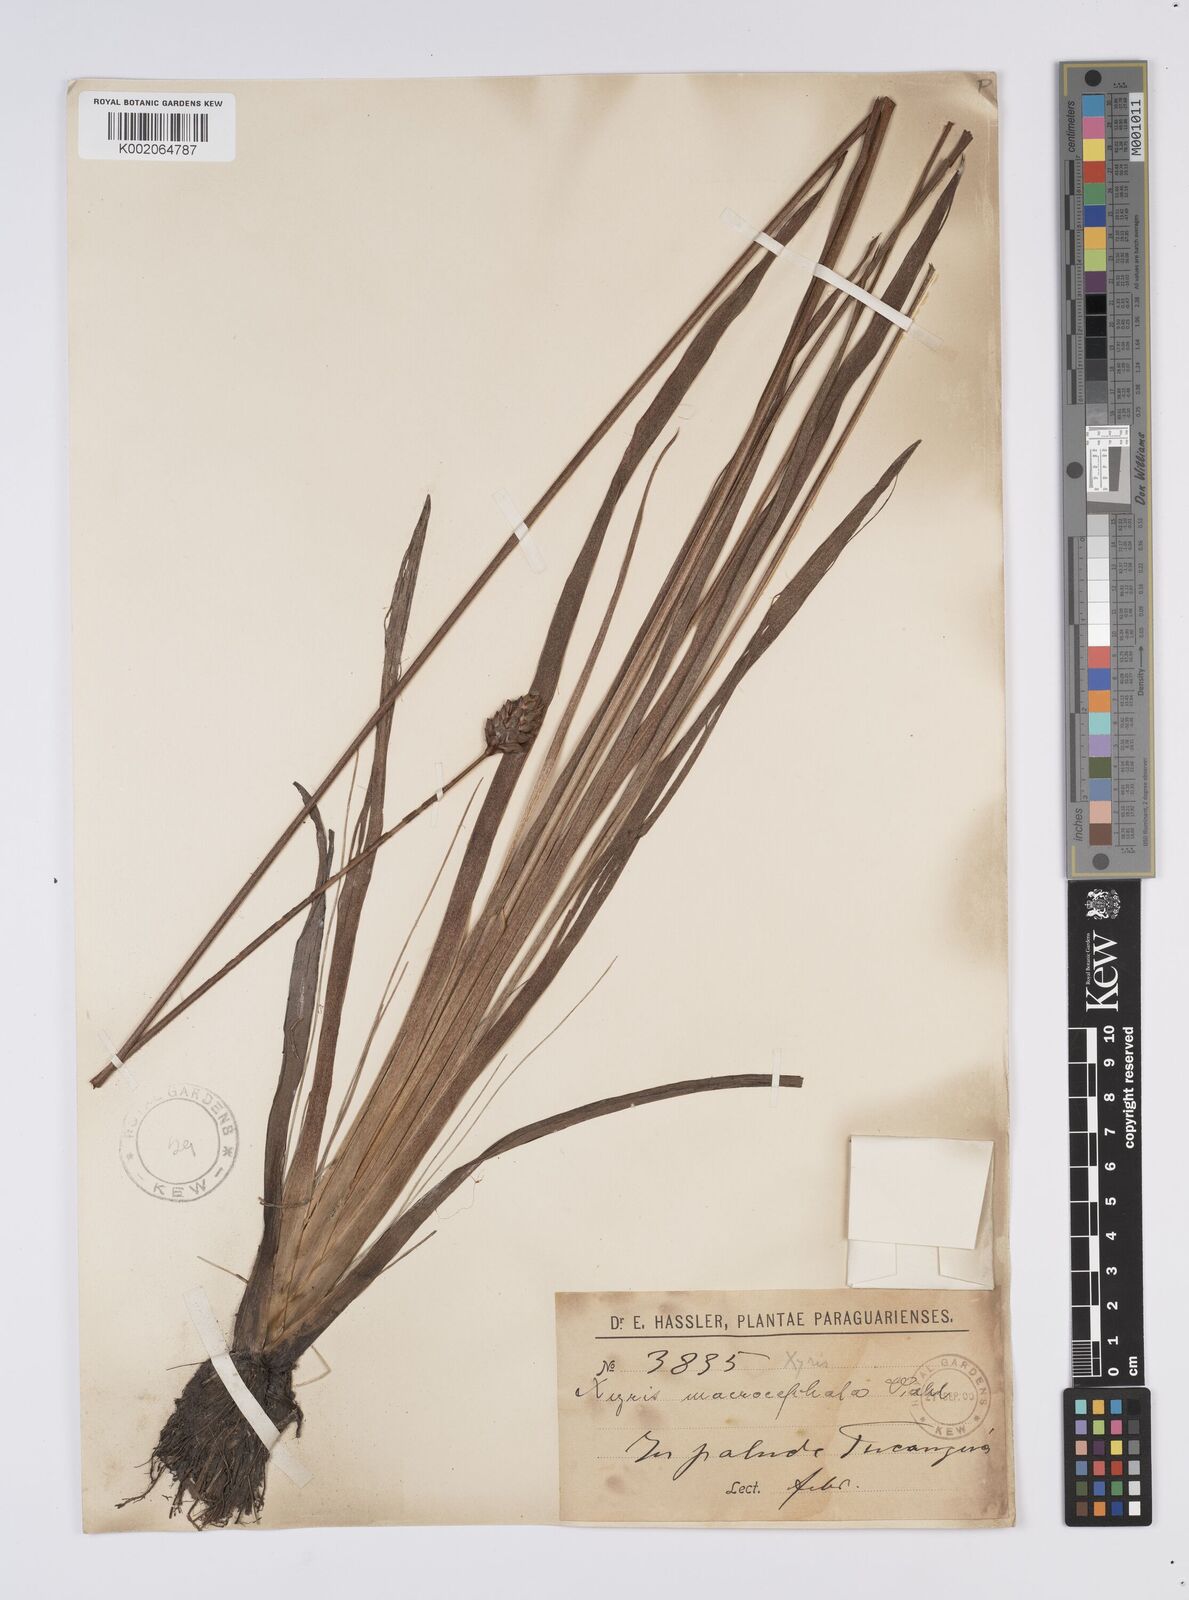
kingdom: Plantae
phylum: Tracheophyta
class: Liliopsida
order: Poales
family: Xyridaceae
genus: Xyris
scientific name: Xyris jupicai
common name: Richard's yelloweyed grass
